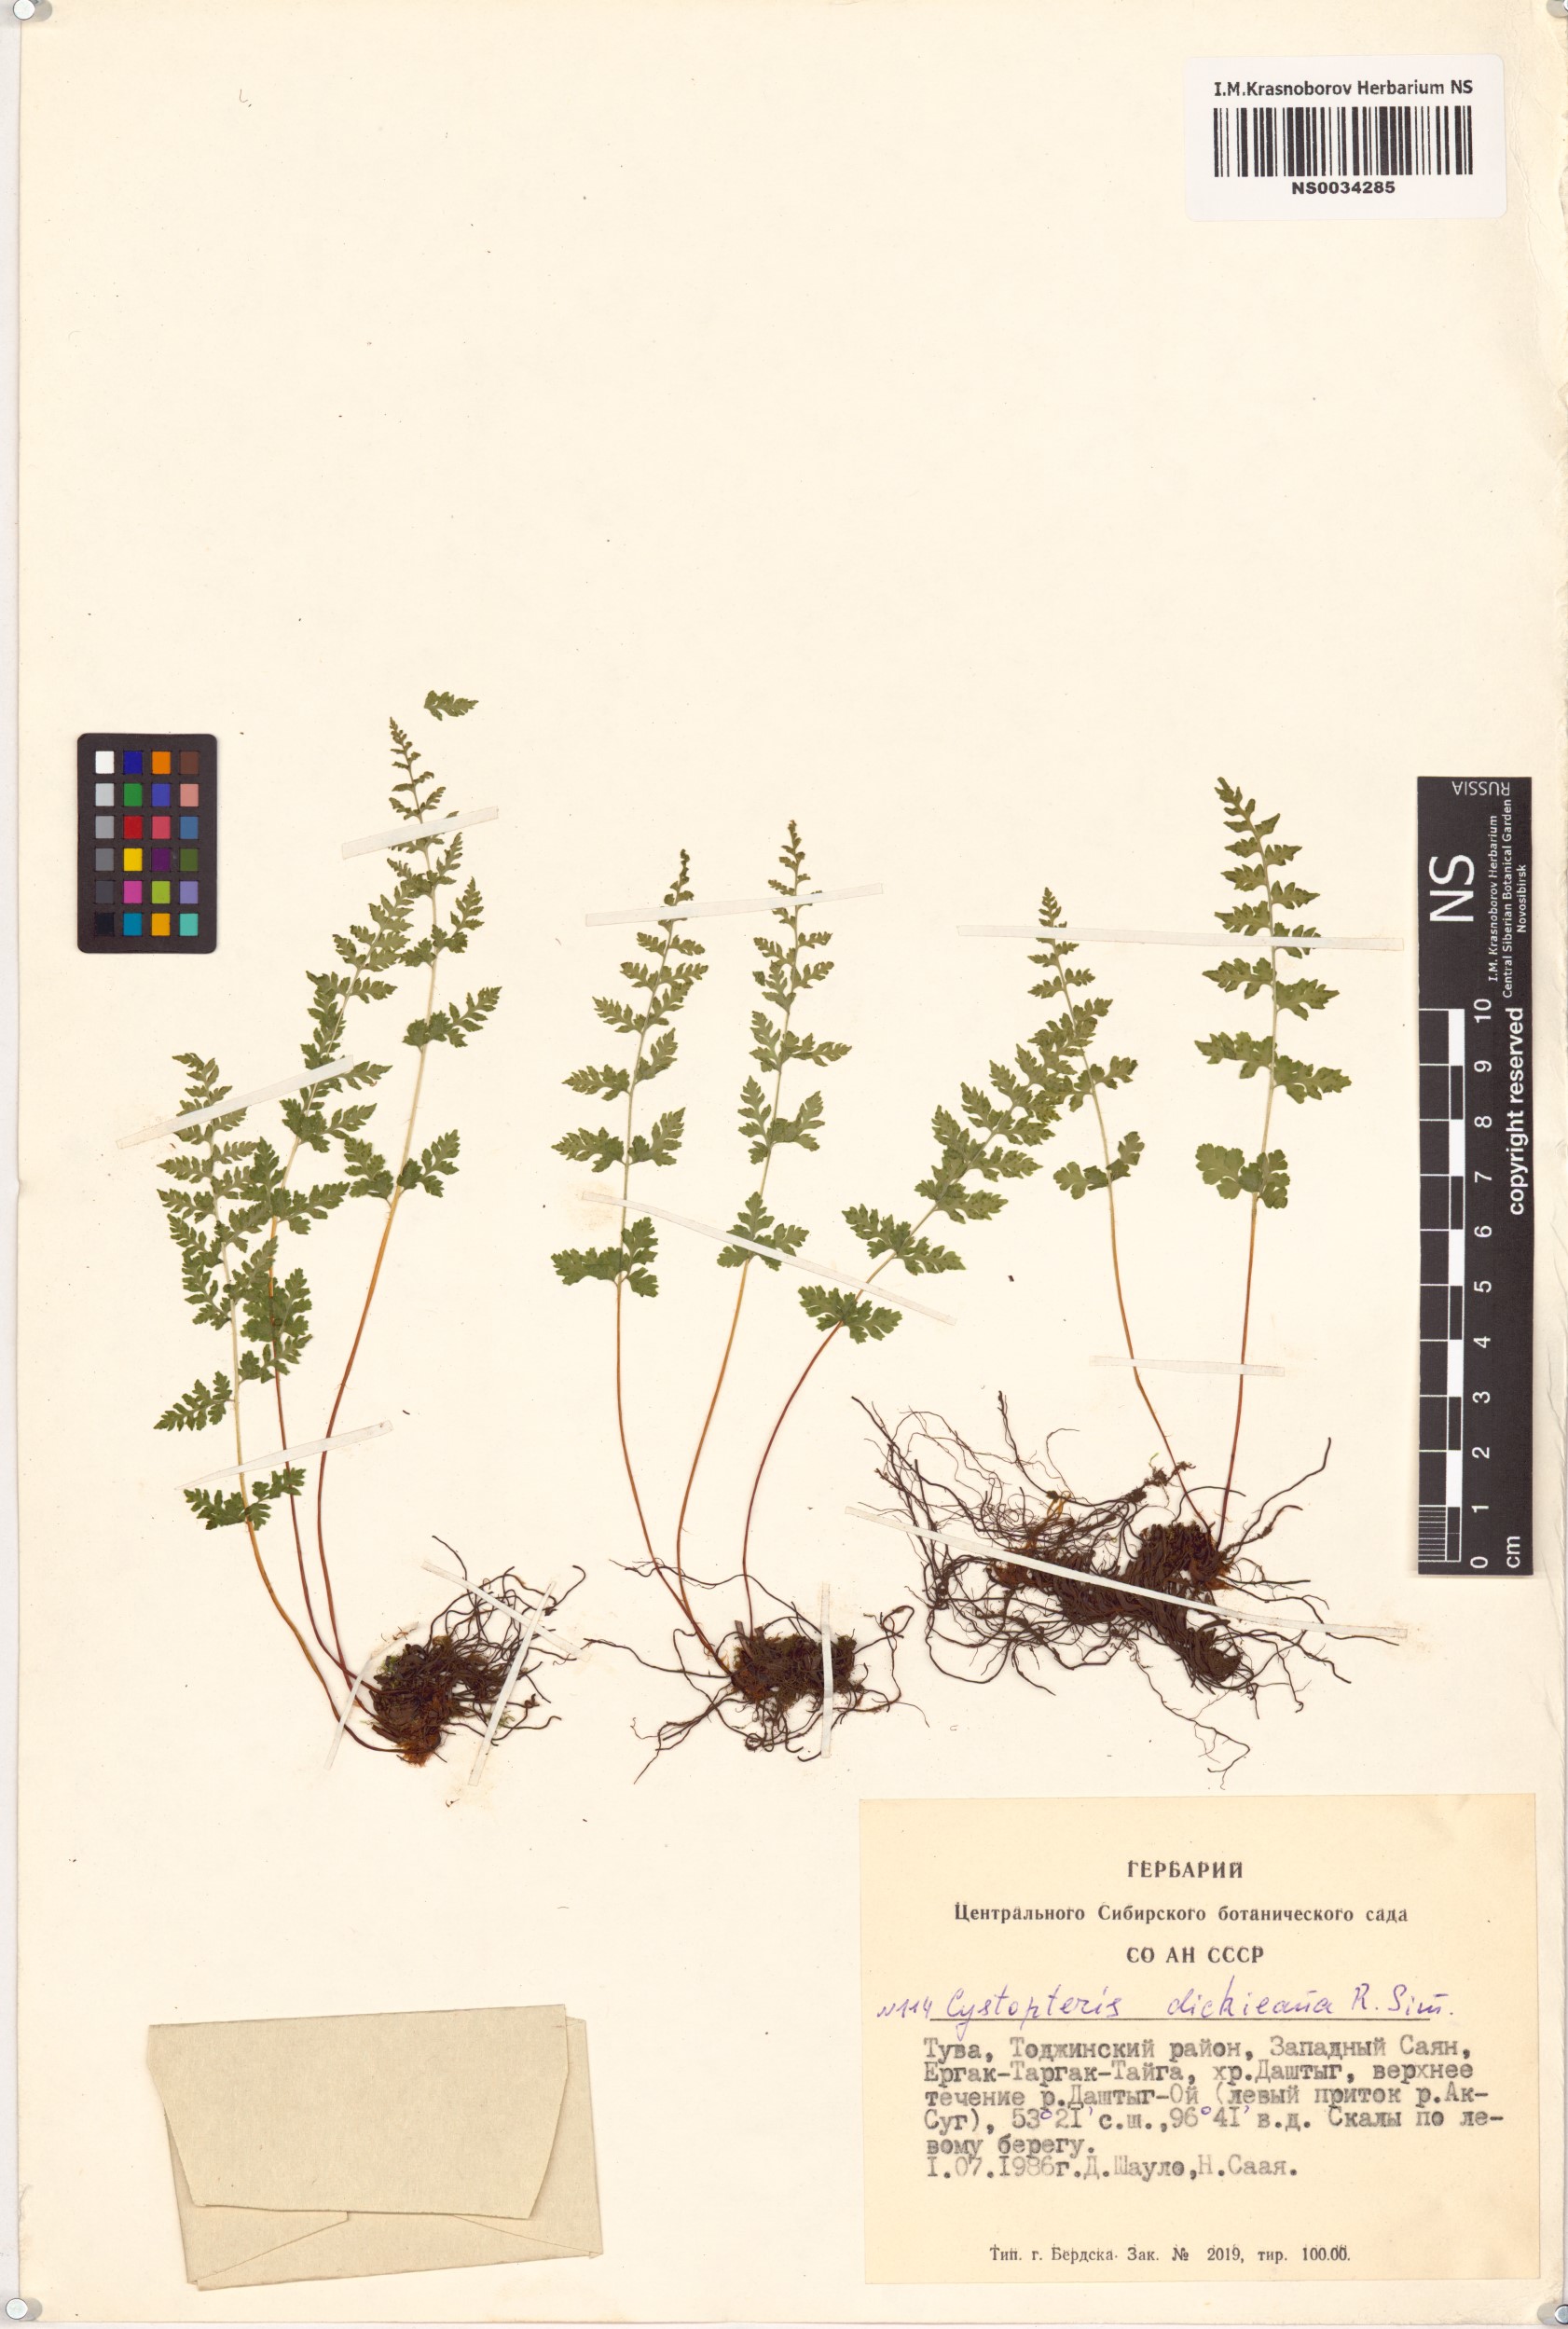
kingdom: Plantae
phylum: Tracheophyta
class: Polypodiopsida
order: Polypodiales
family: Cystopteridaceae
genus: Cystopteris
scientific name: Cystopteris dickieana
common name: Dickie's bladder-fern
